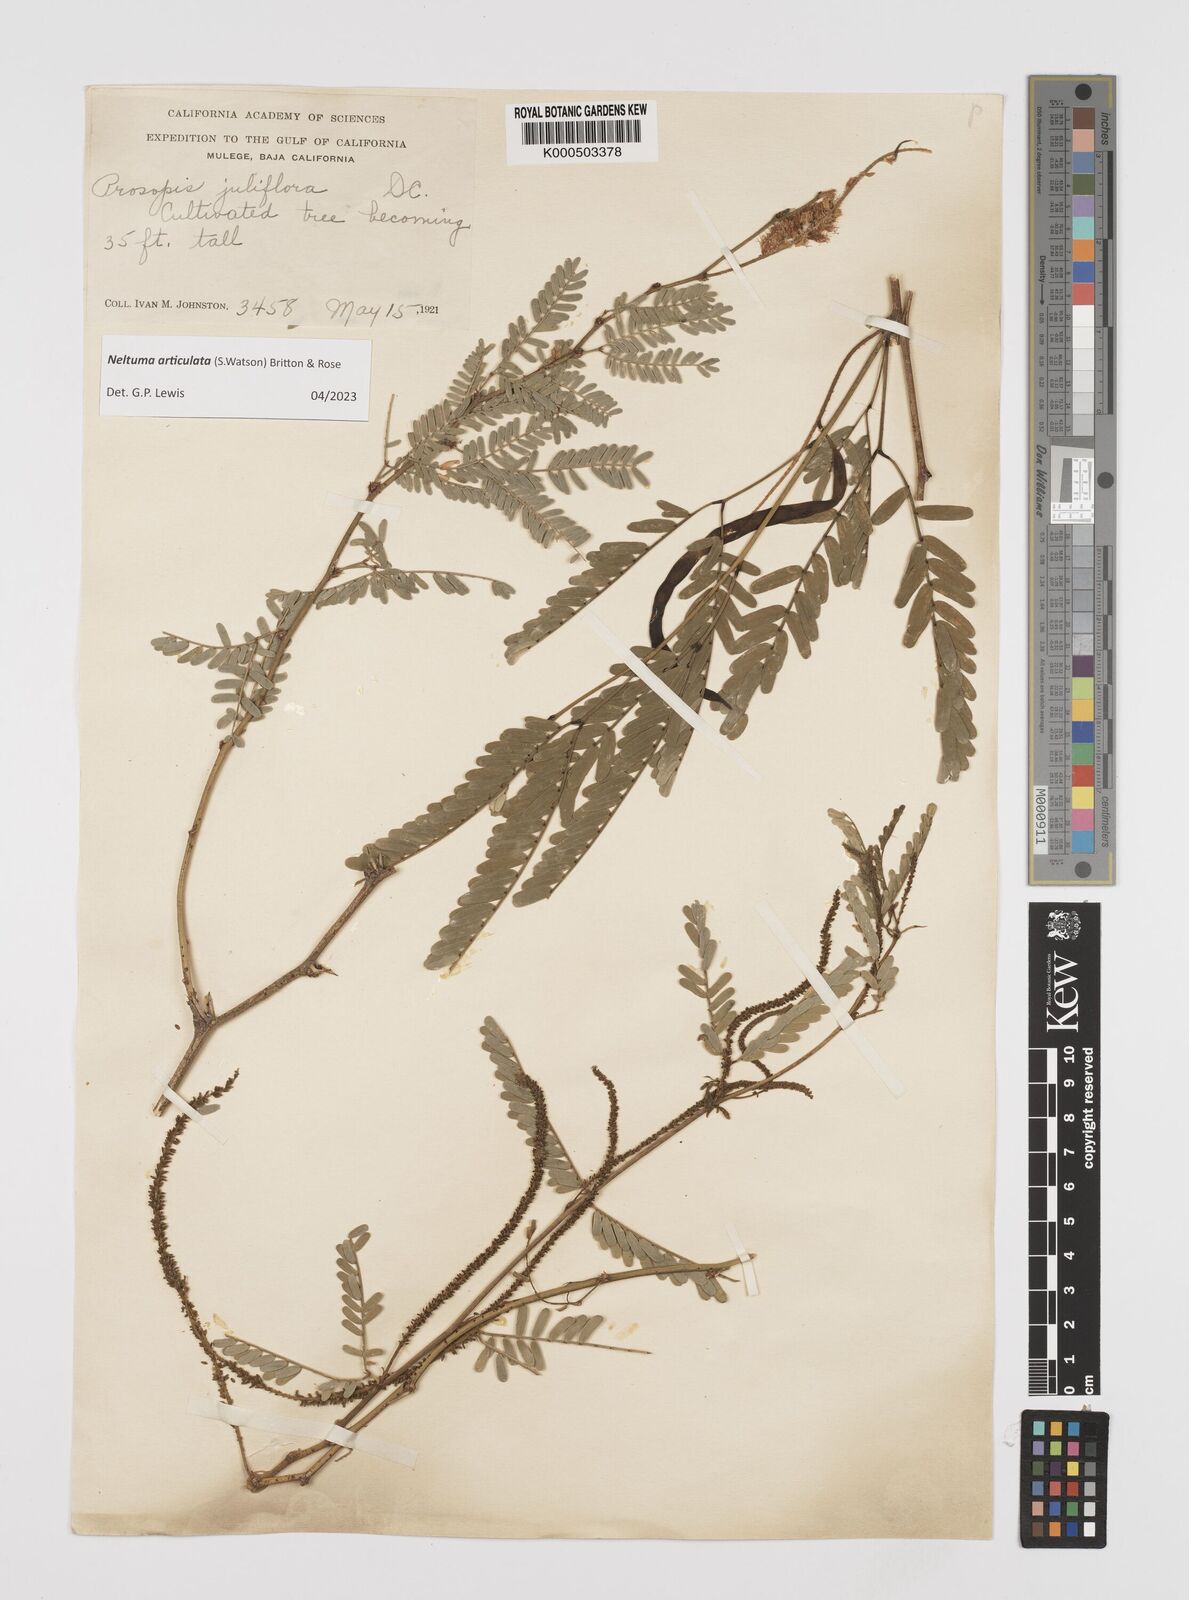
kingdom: Plantae
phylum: Tracheophyta
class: Magnoliopsida
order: Fabales
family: Fabaceae
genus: Prosopis
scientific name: Prosopis articulata
